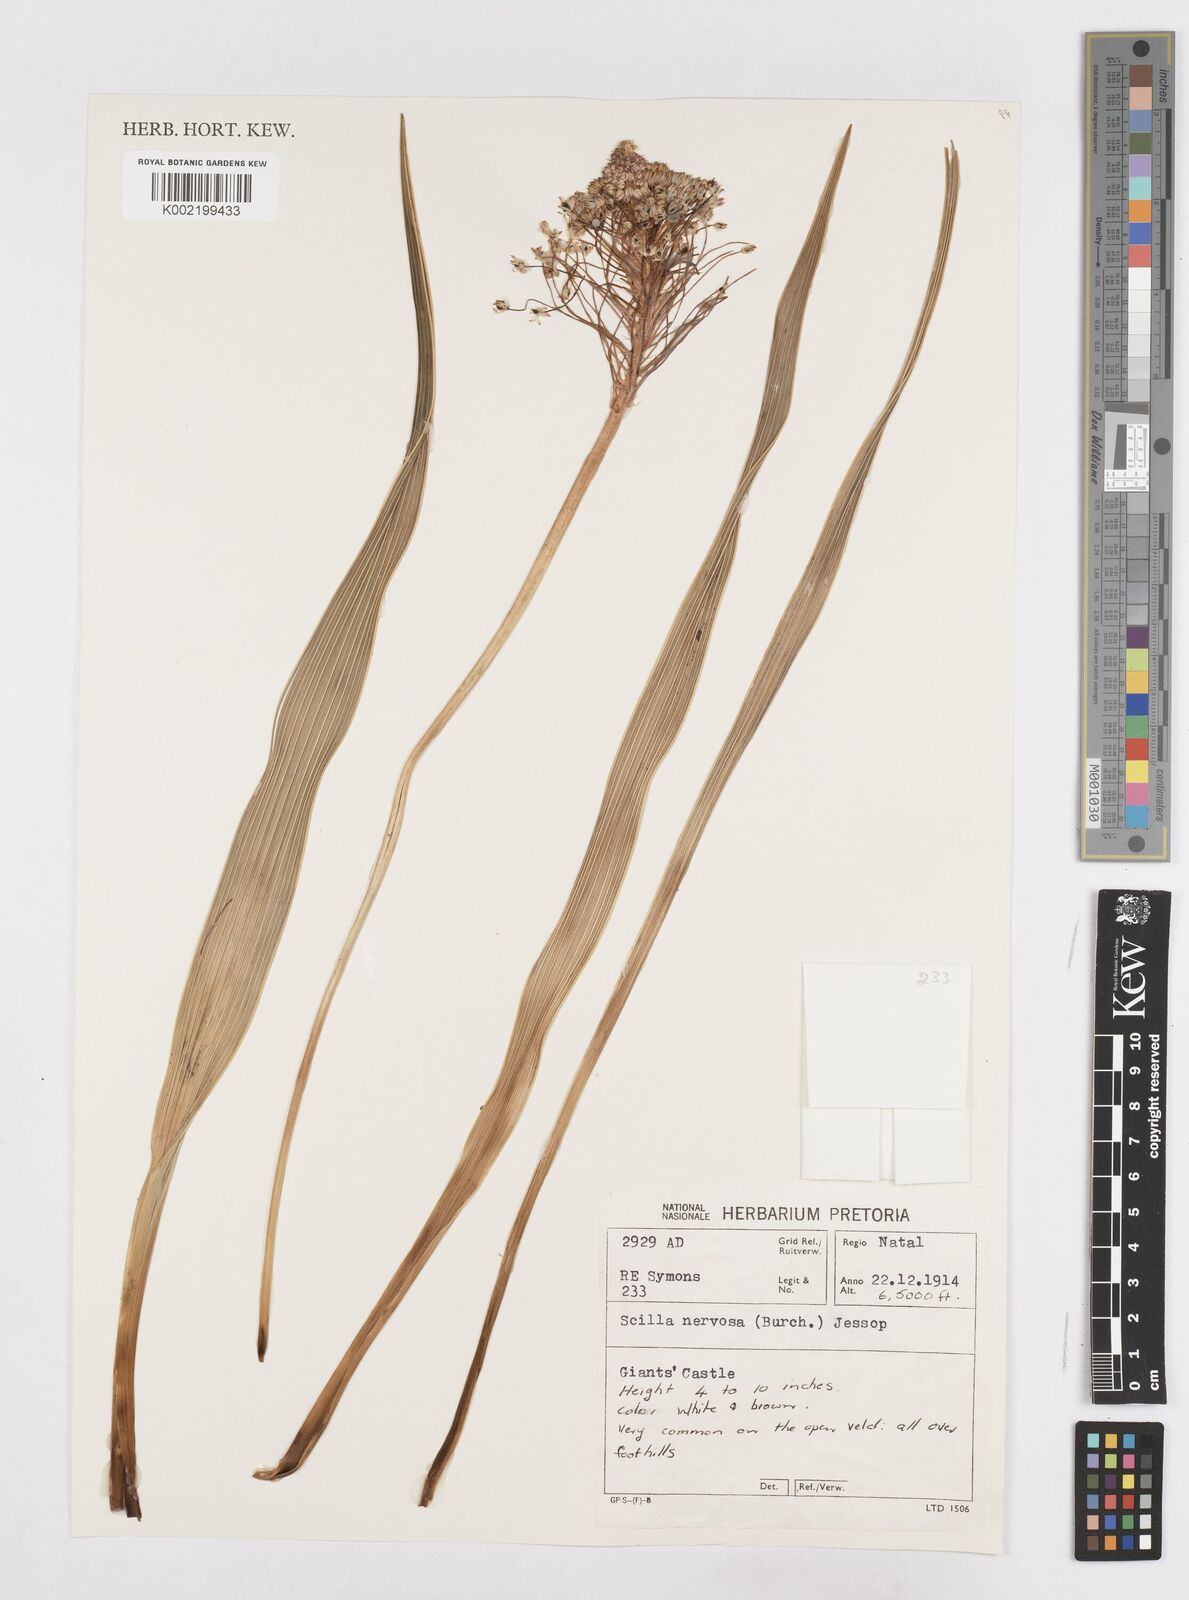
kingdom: Plantae
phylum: Tracheophyta
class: Liliopsida
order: Asparagales
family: Asparagaceae
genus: Schizocarphus
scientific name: Schizocarphus nervosus
